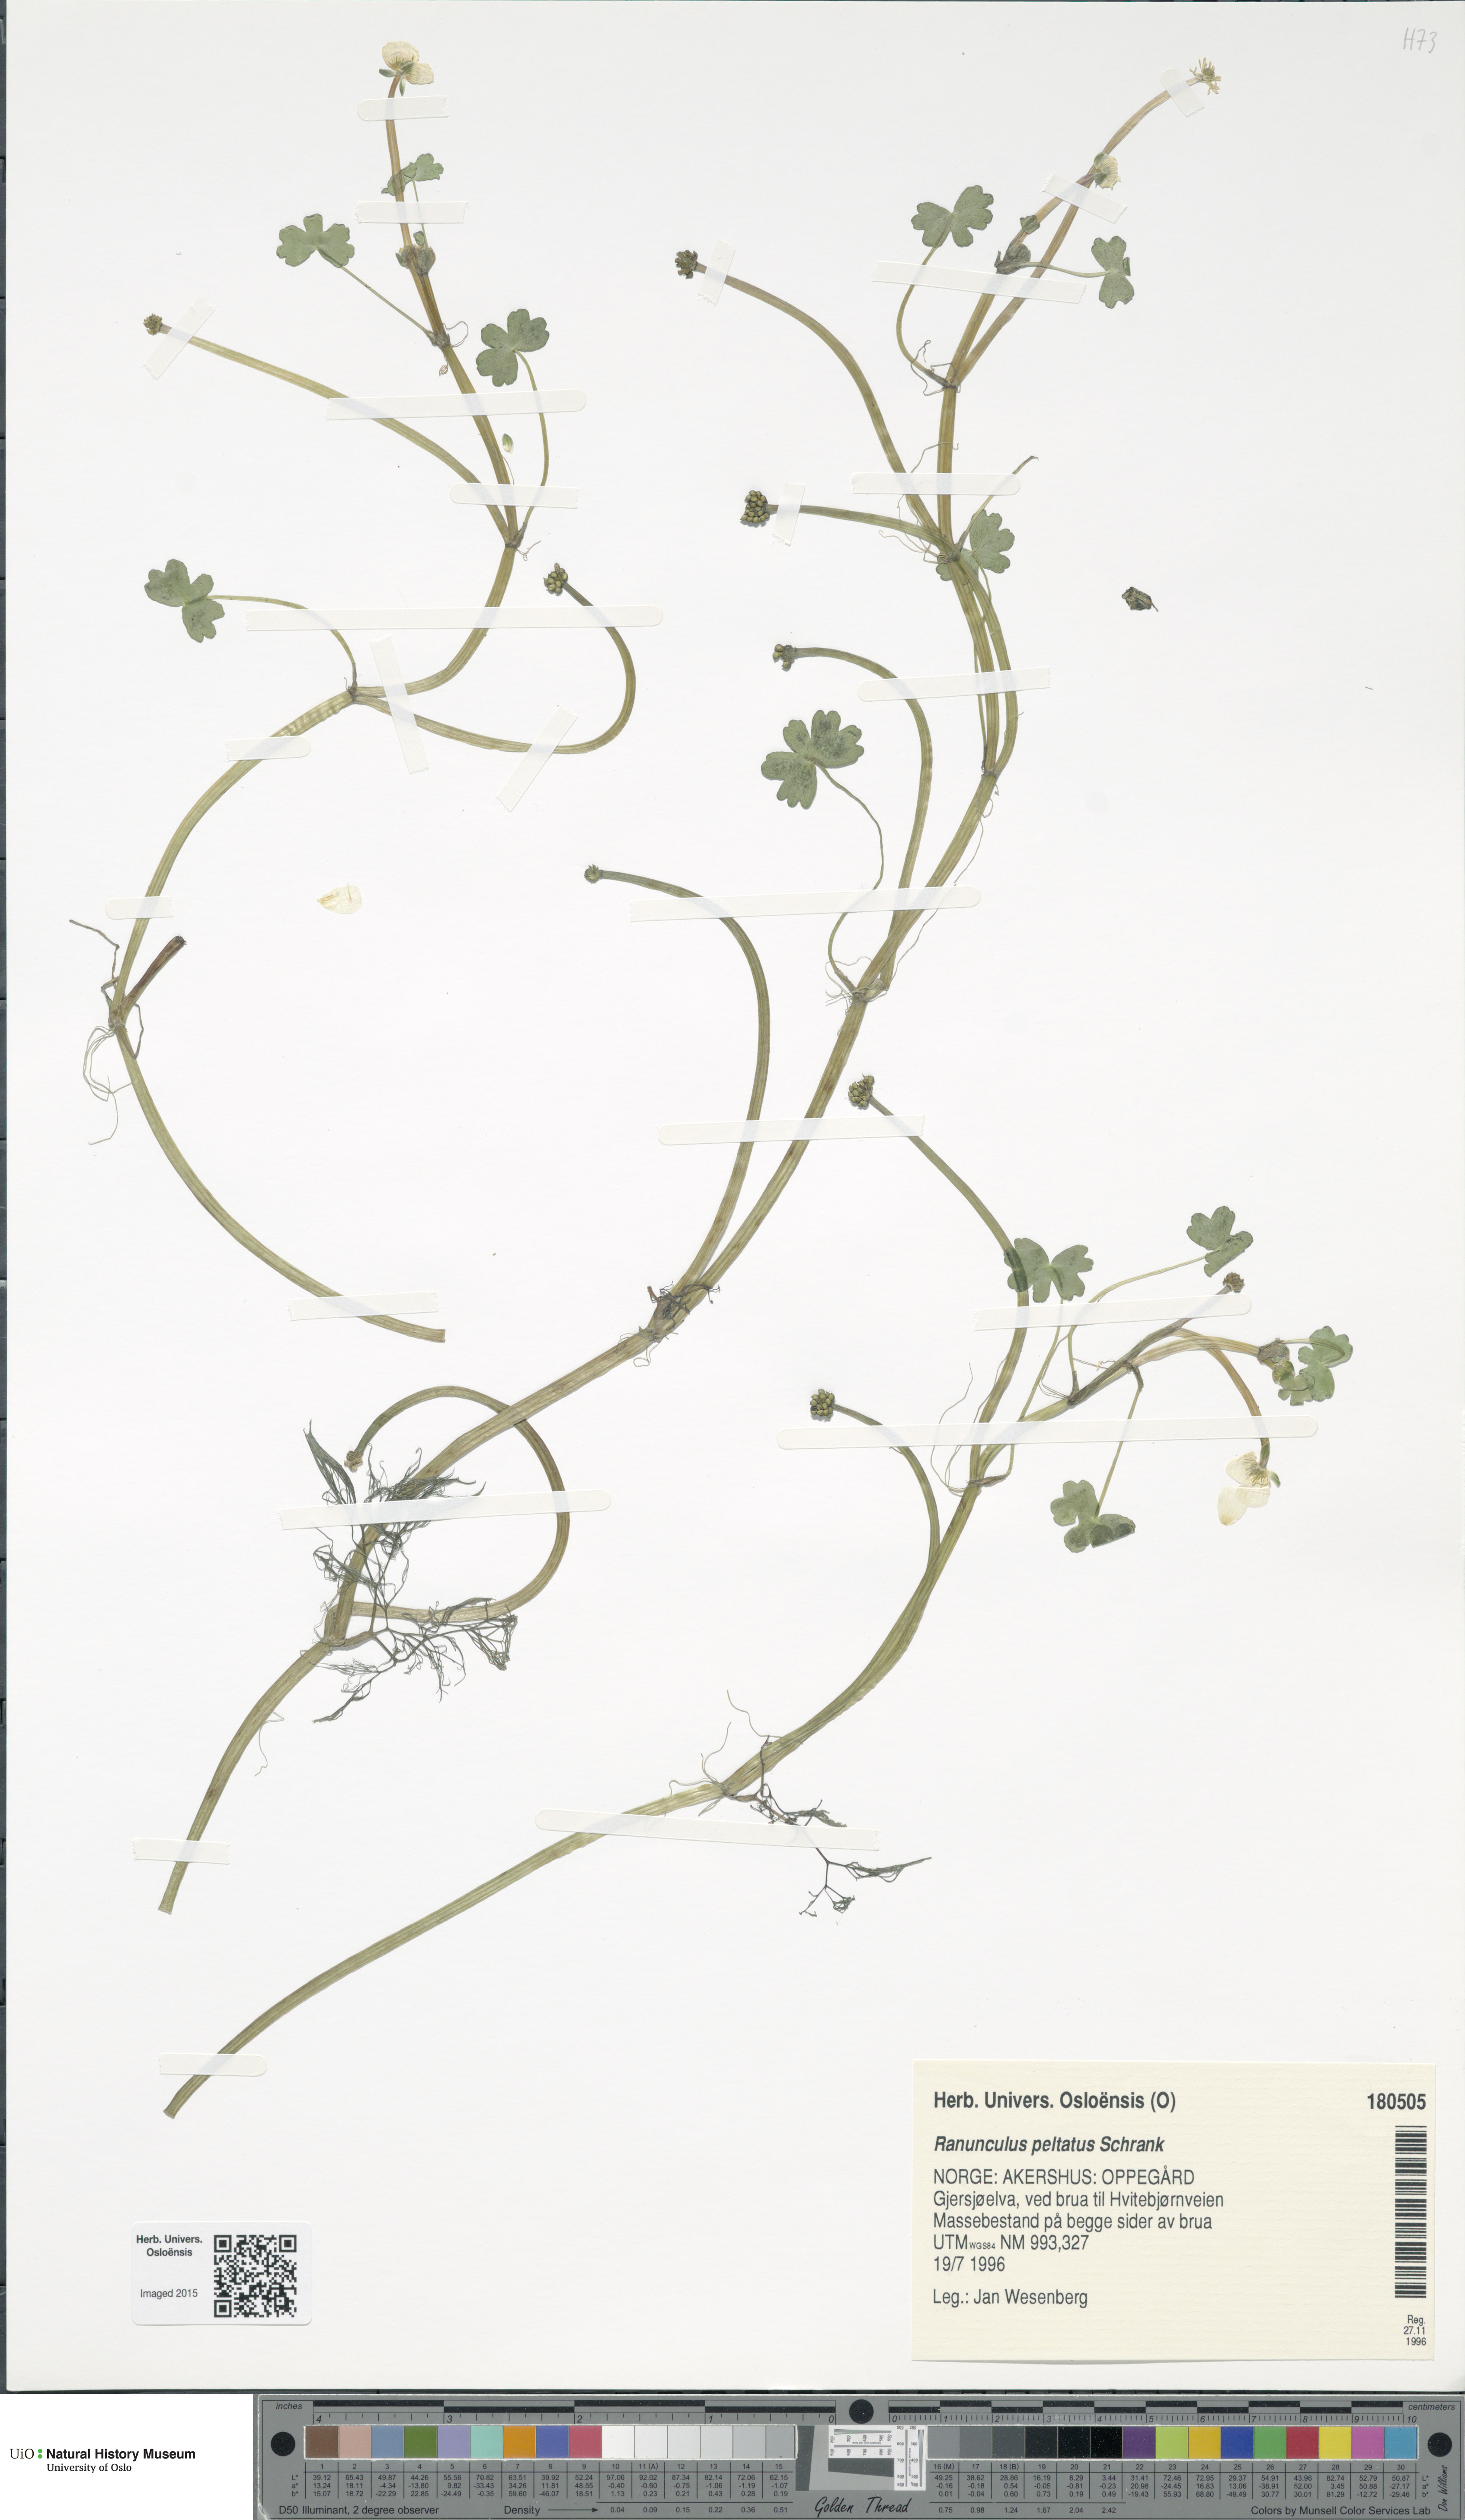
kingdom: Plantae
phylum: Tracheophyta
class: Magnoliopsida
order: Ranunculales
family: Ranunculaceae
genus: Ranunculus
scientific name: Ranunculus peltatus
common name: Pond water-crowfoot
